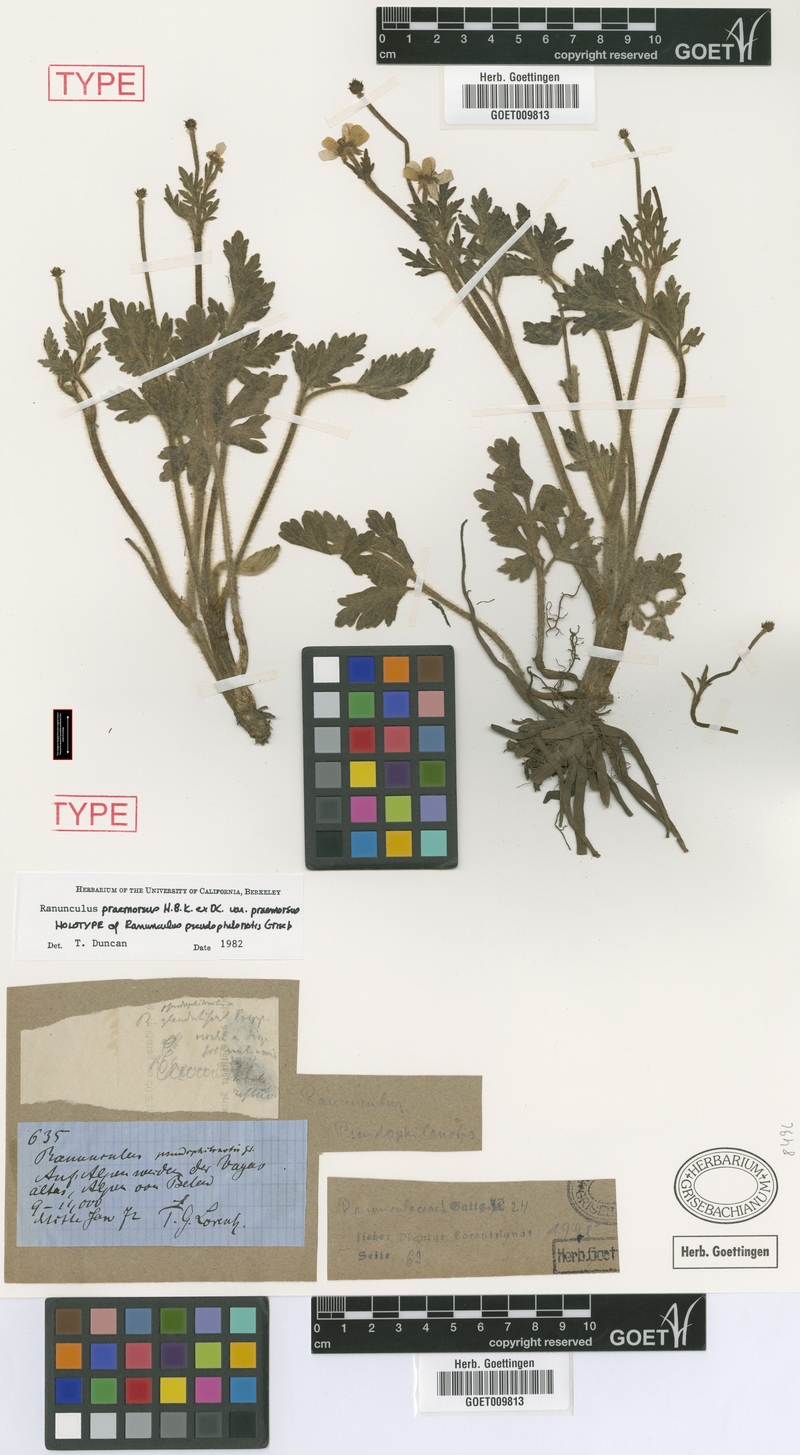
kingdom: Plantae
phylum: Tracheophyta
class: Magnoliopsida
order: Ranunculales
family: Ranunculaceae
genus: Ranunculus
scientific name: Ranunculus praemorsus
